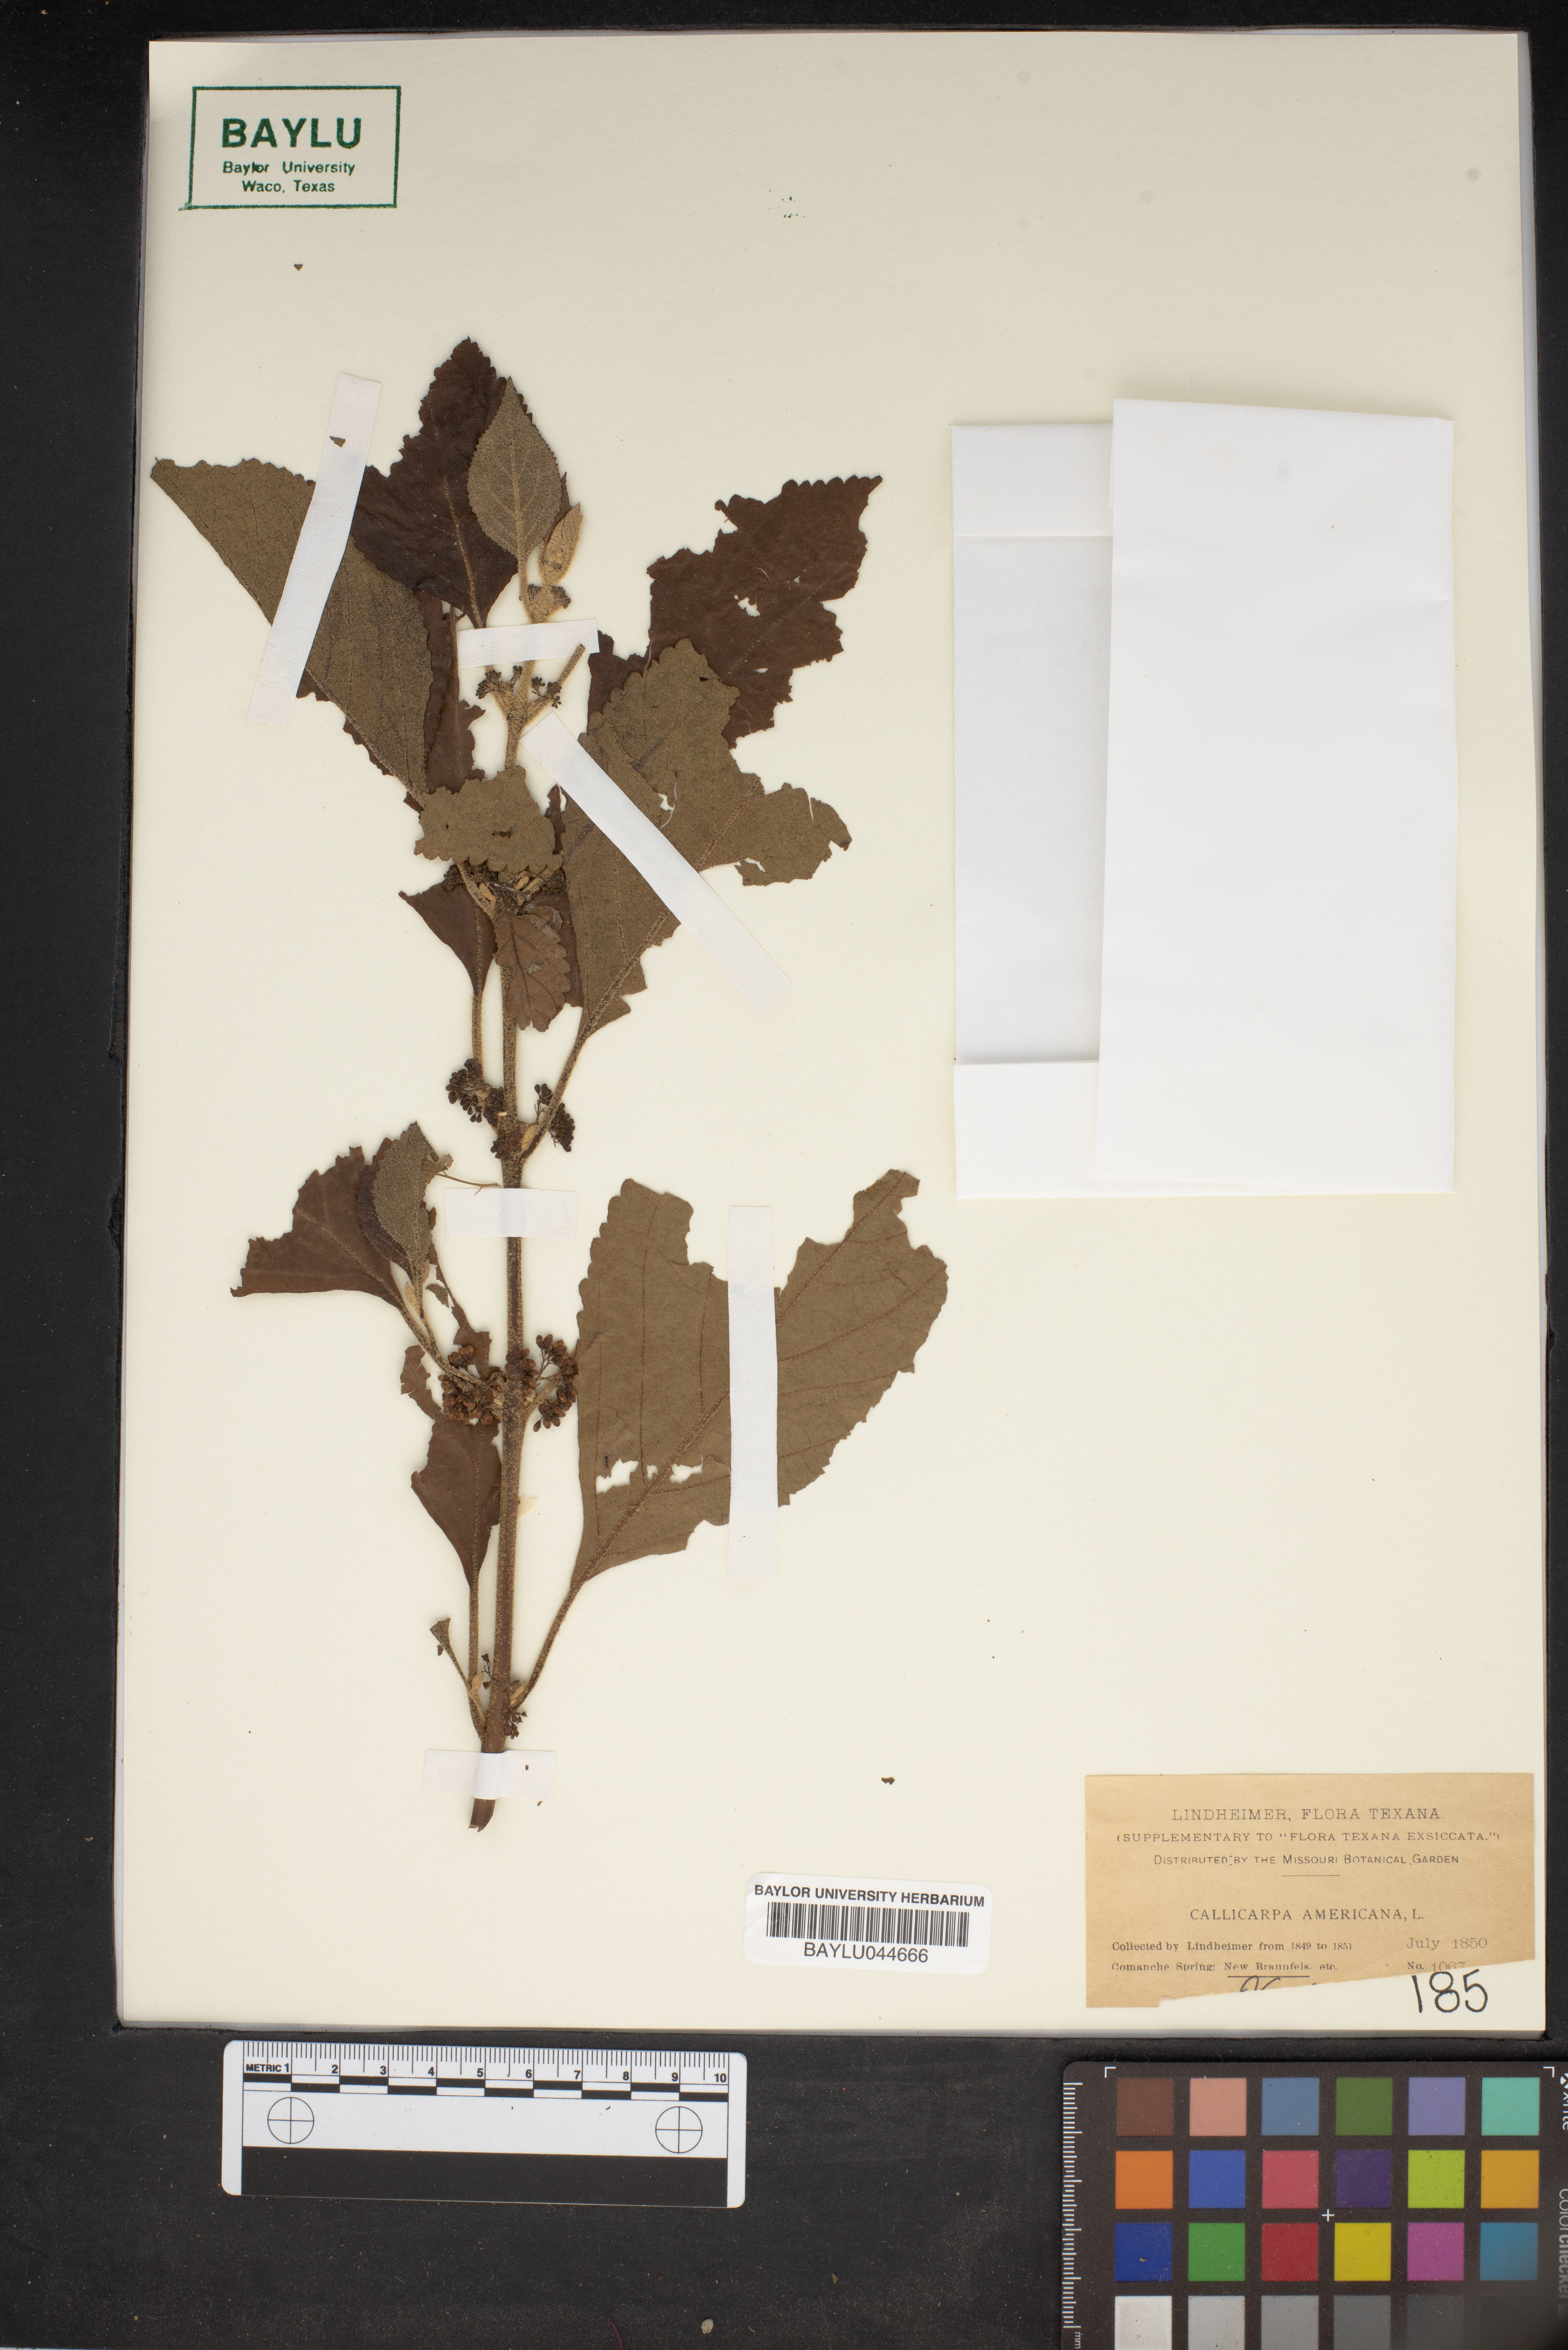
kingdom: Plantae
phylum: Tracheophyta
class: Magnoliopsida
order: Lamiales
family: Lamiaceae
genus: Callicarpa
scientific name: Callicarpa americana
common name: American beautyberry
